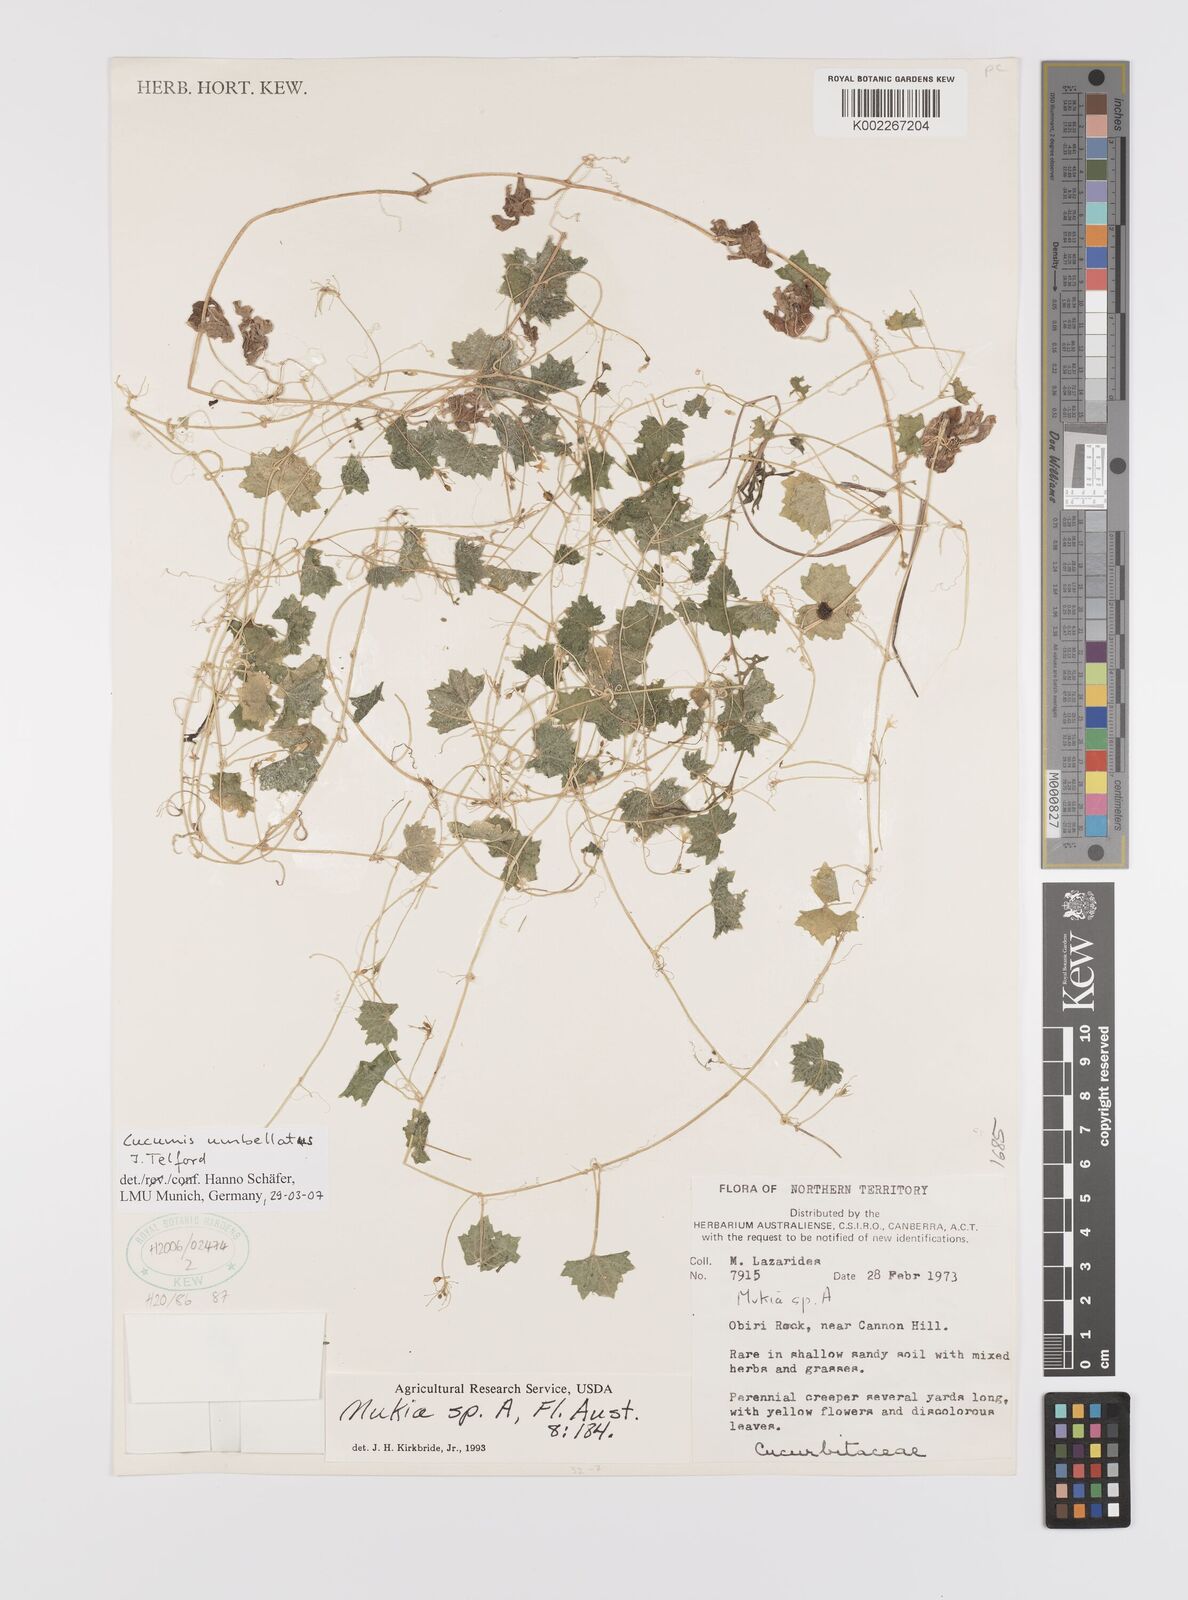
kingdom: Plantae
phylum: Tracheophyta
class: Magnoliopsida
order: Cucurbitales
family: Cucurbitaceae
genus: Cucumis
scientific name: Cucumis umbellatus
